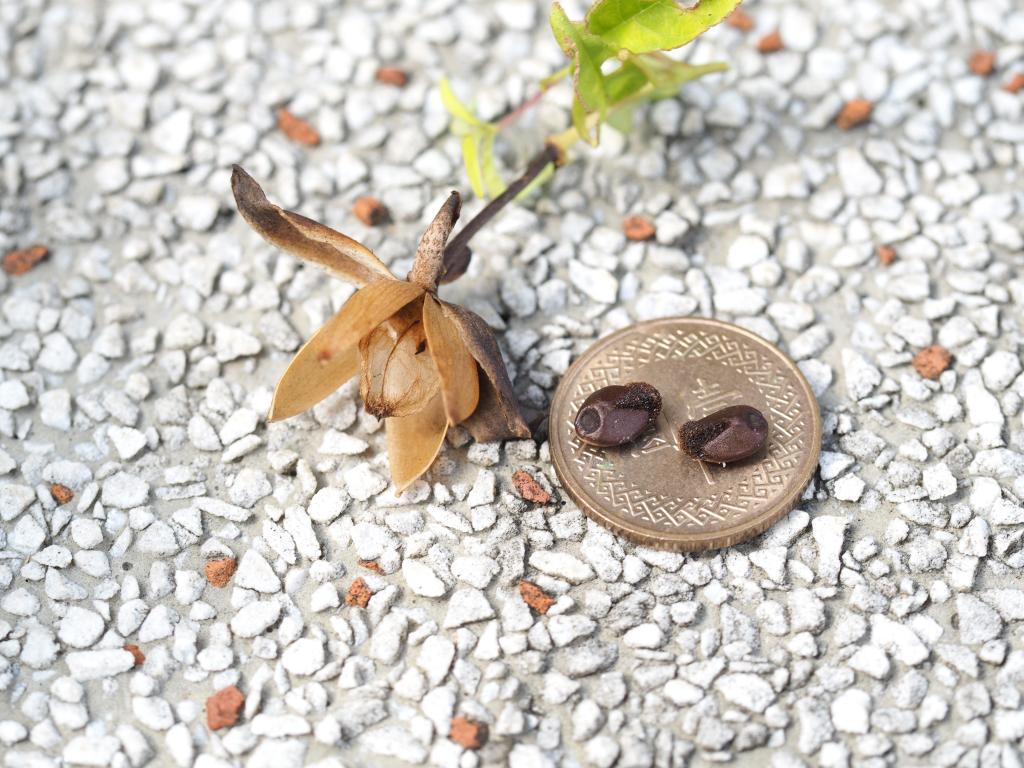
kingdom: Plantae
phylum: Tracheophyta
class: Magnoliopsida
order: Solanales
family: Convolvulaceae
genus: Distimake
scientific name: Distimake quinatus
